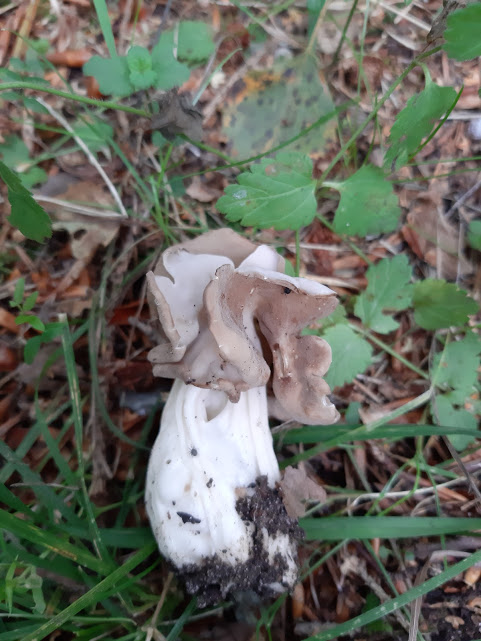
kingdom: Fungi
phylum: Ascomycota
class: Pezizomycetes
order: Pezizales
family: Helvellaceae
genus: Helvella
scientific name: Helvella crispa
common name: kruset foldhat
